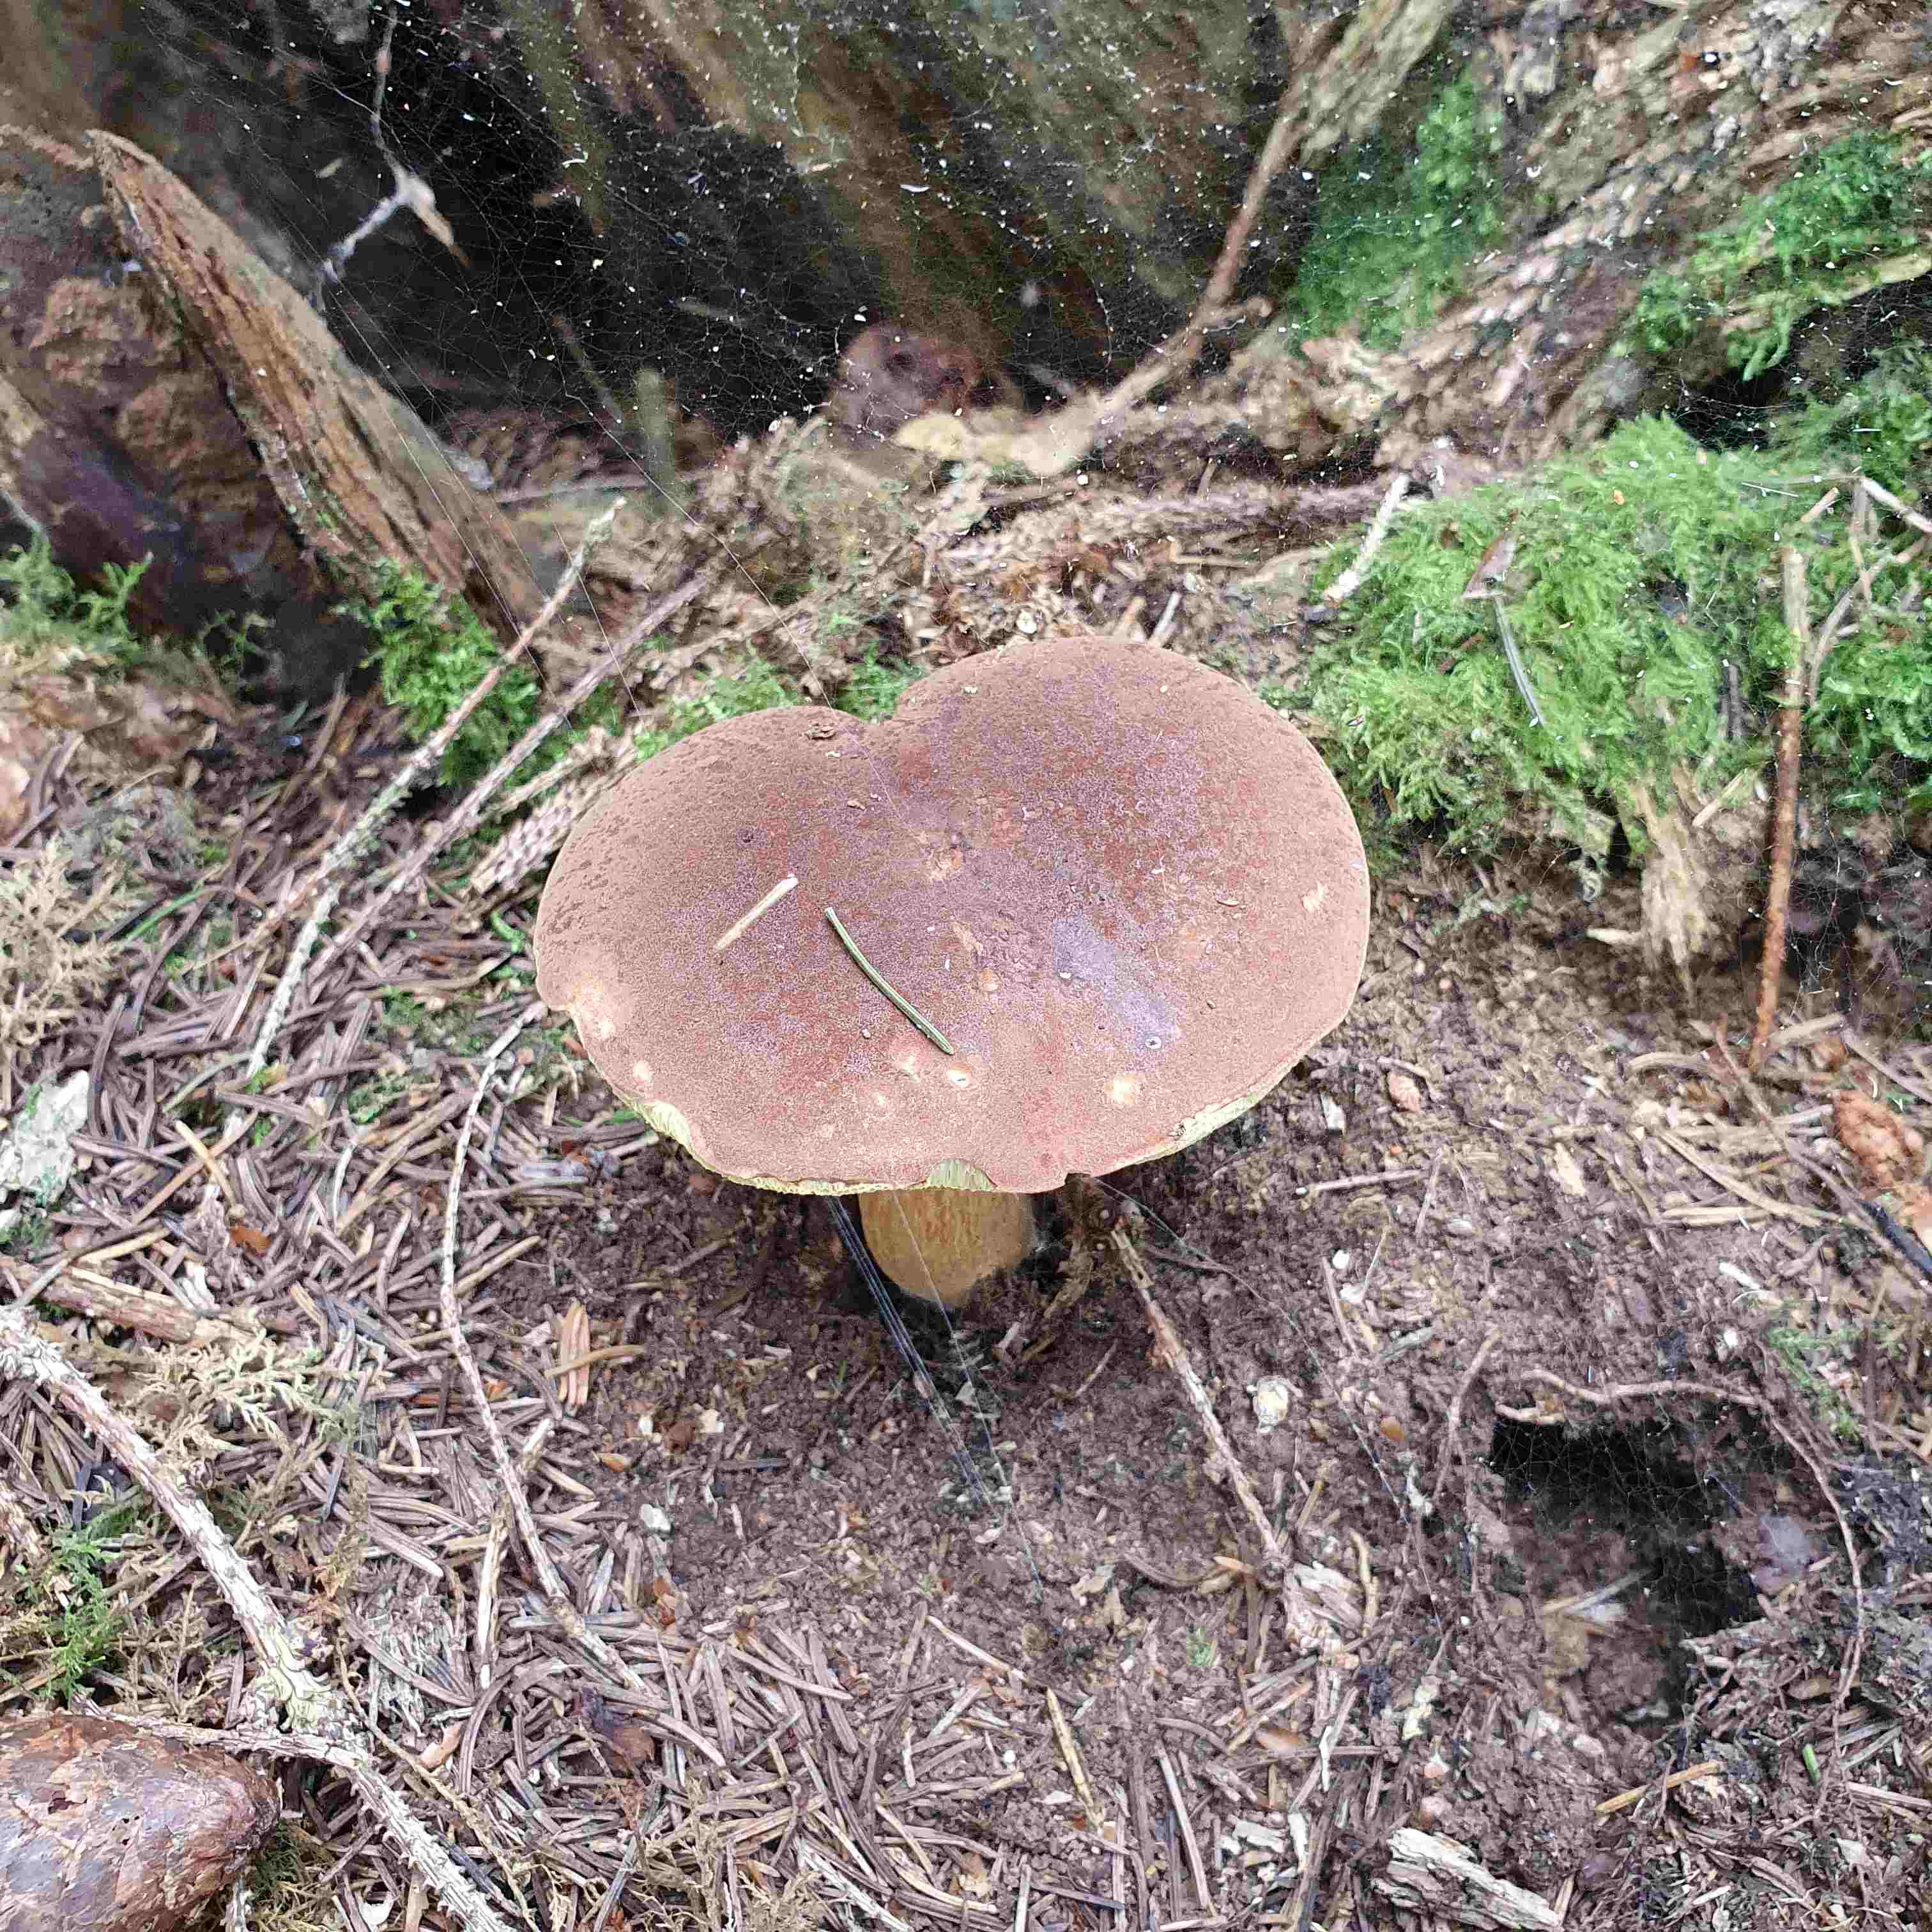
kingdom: Fungi
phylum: Basidiomycota
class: Agaricomycetes
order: Boletales
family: Boletaceae
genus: Imleria
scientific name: Imleria badia
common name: brunstokket rørhat
